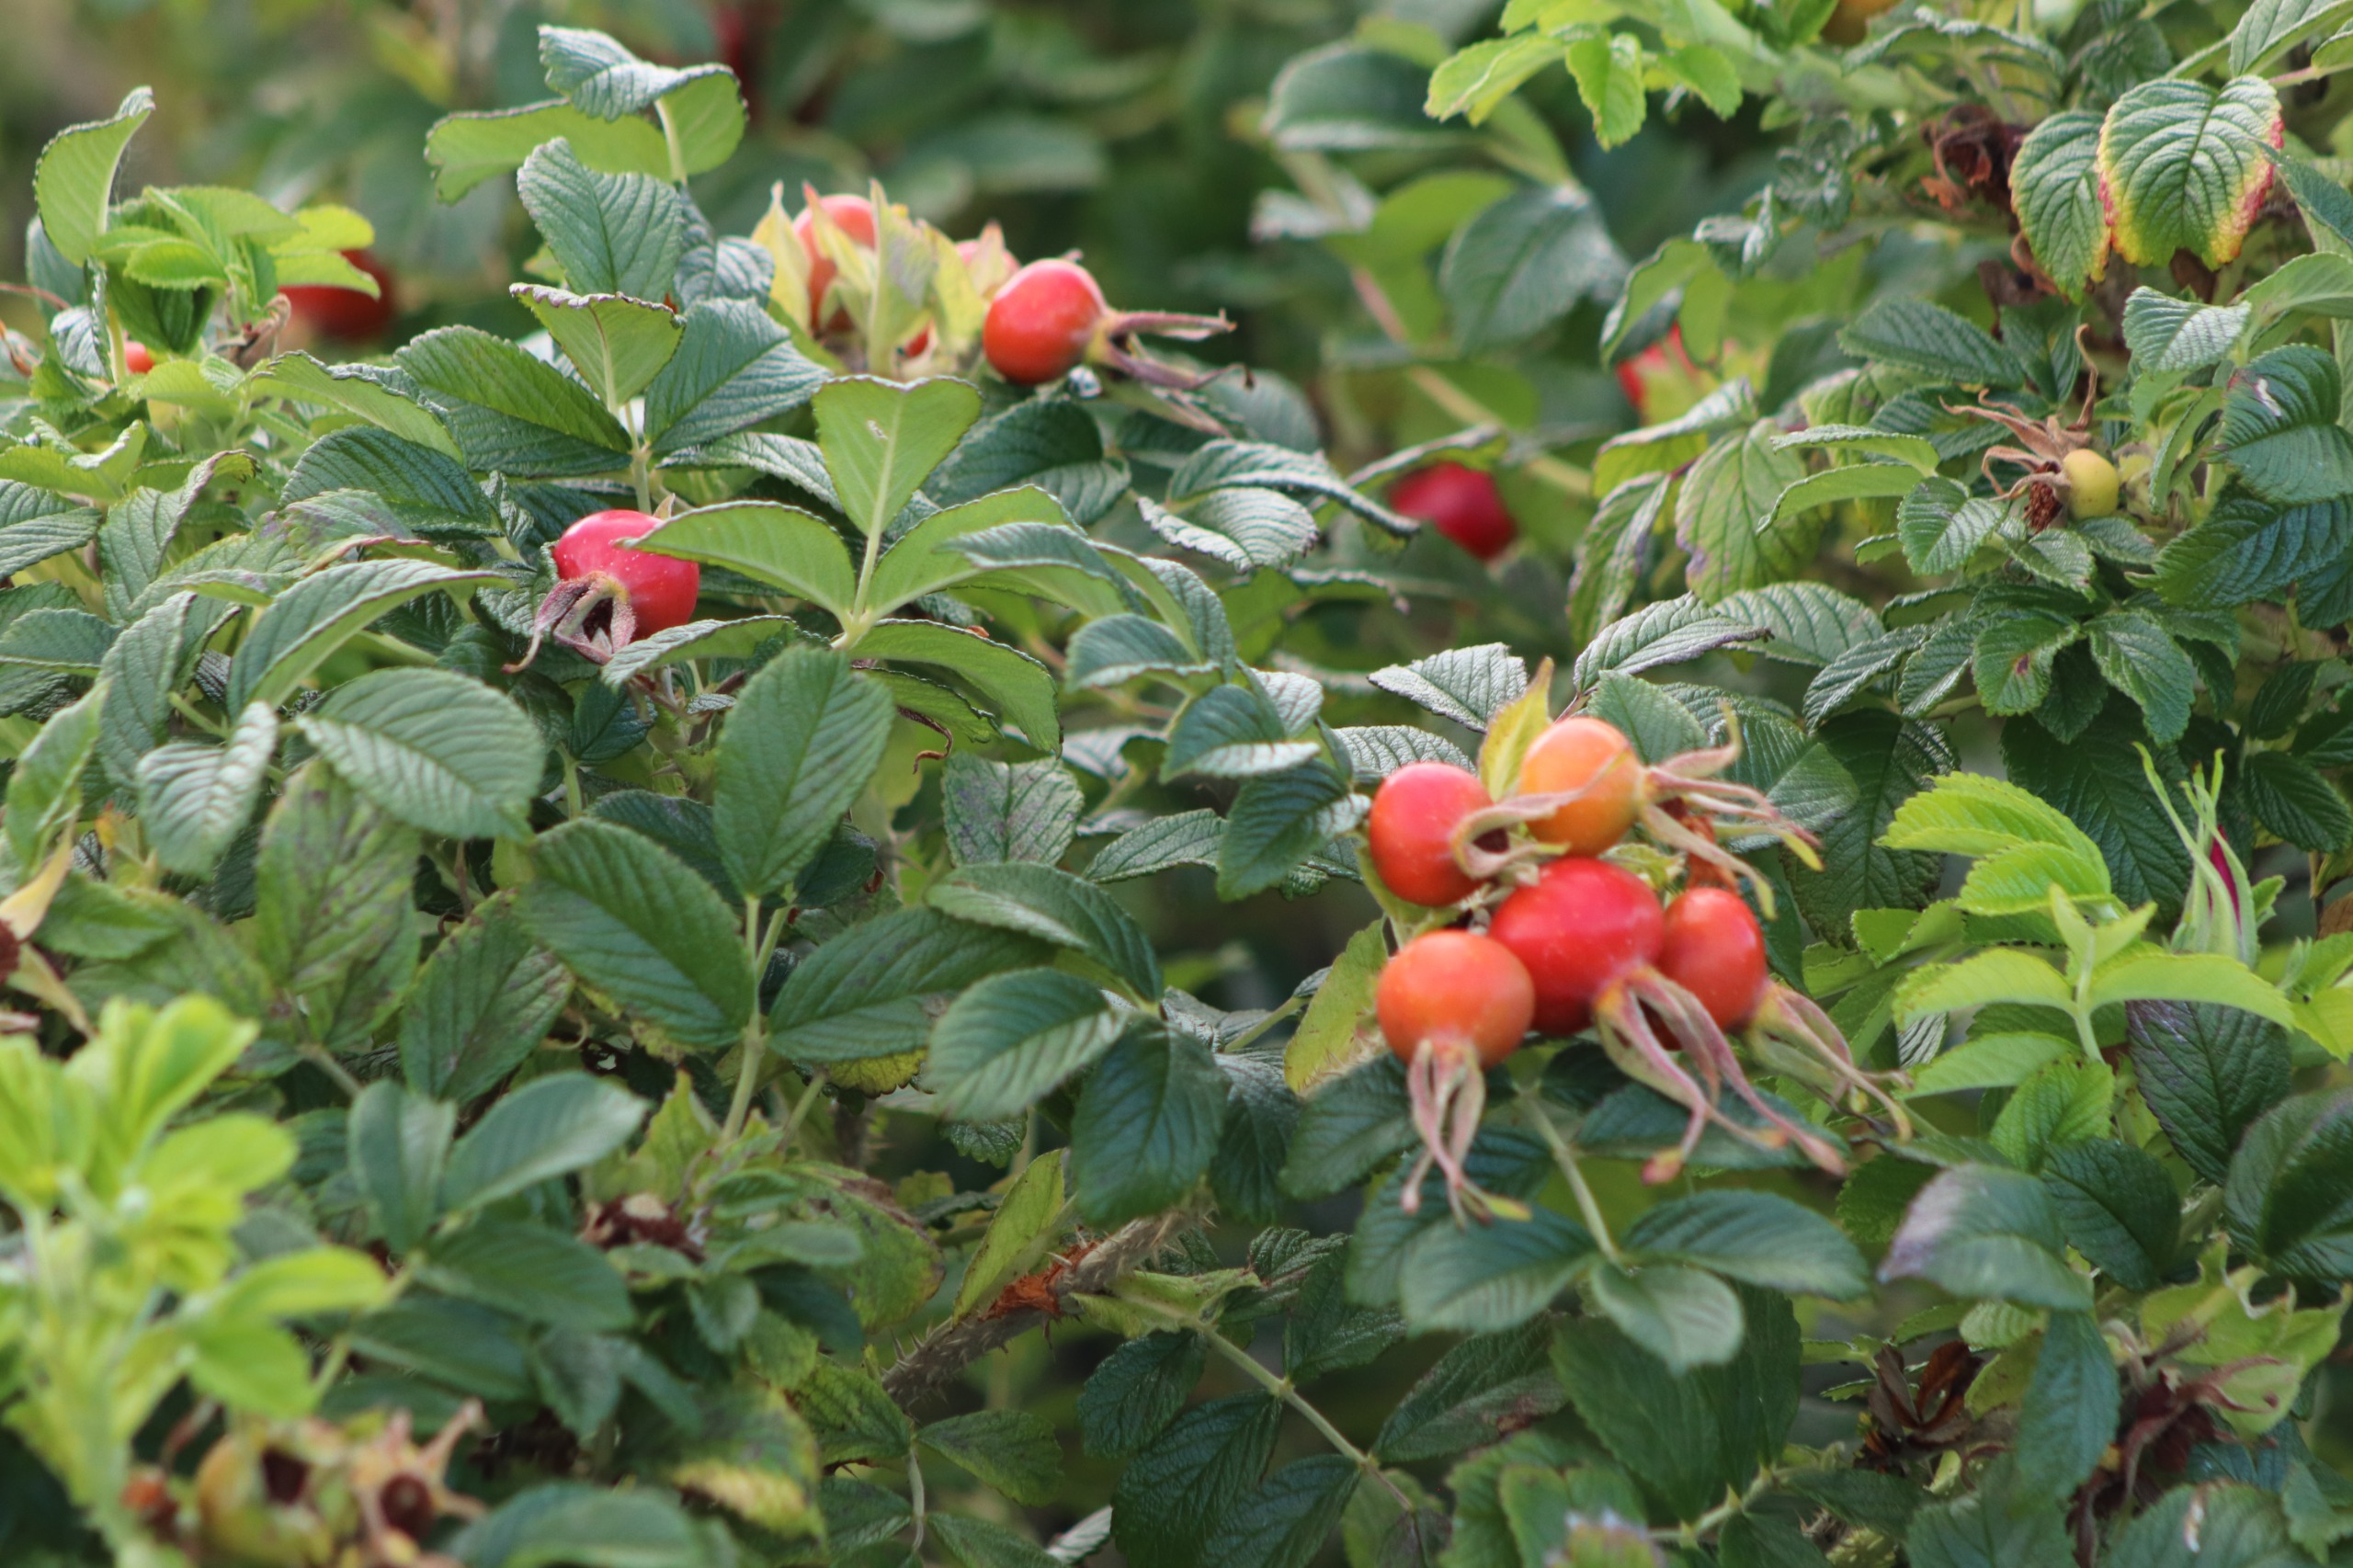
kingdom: Plantae
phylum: Tracheophyta
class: Magnoliopsida
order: Rosales
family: Rosaceae
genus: Rosa
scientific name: Rosa rugosa
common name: Rynket rose
